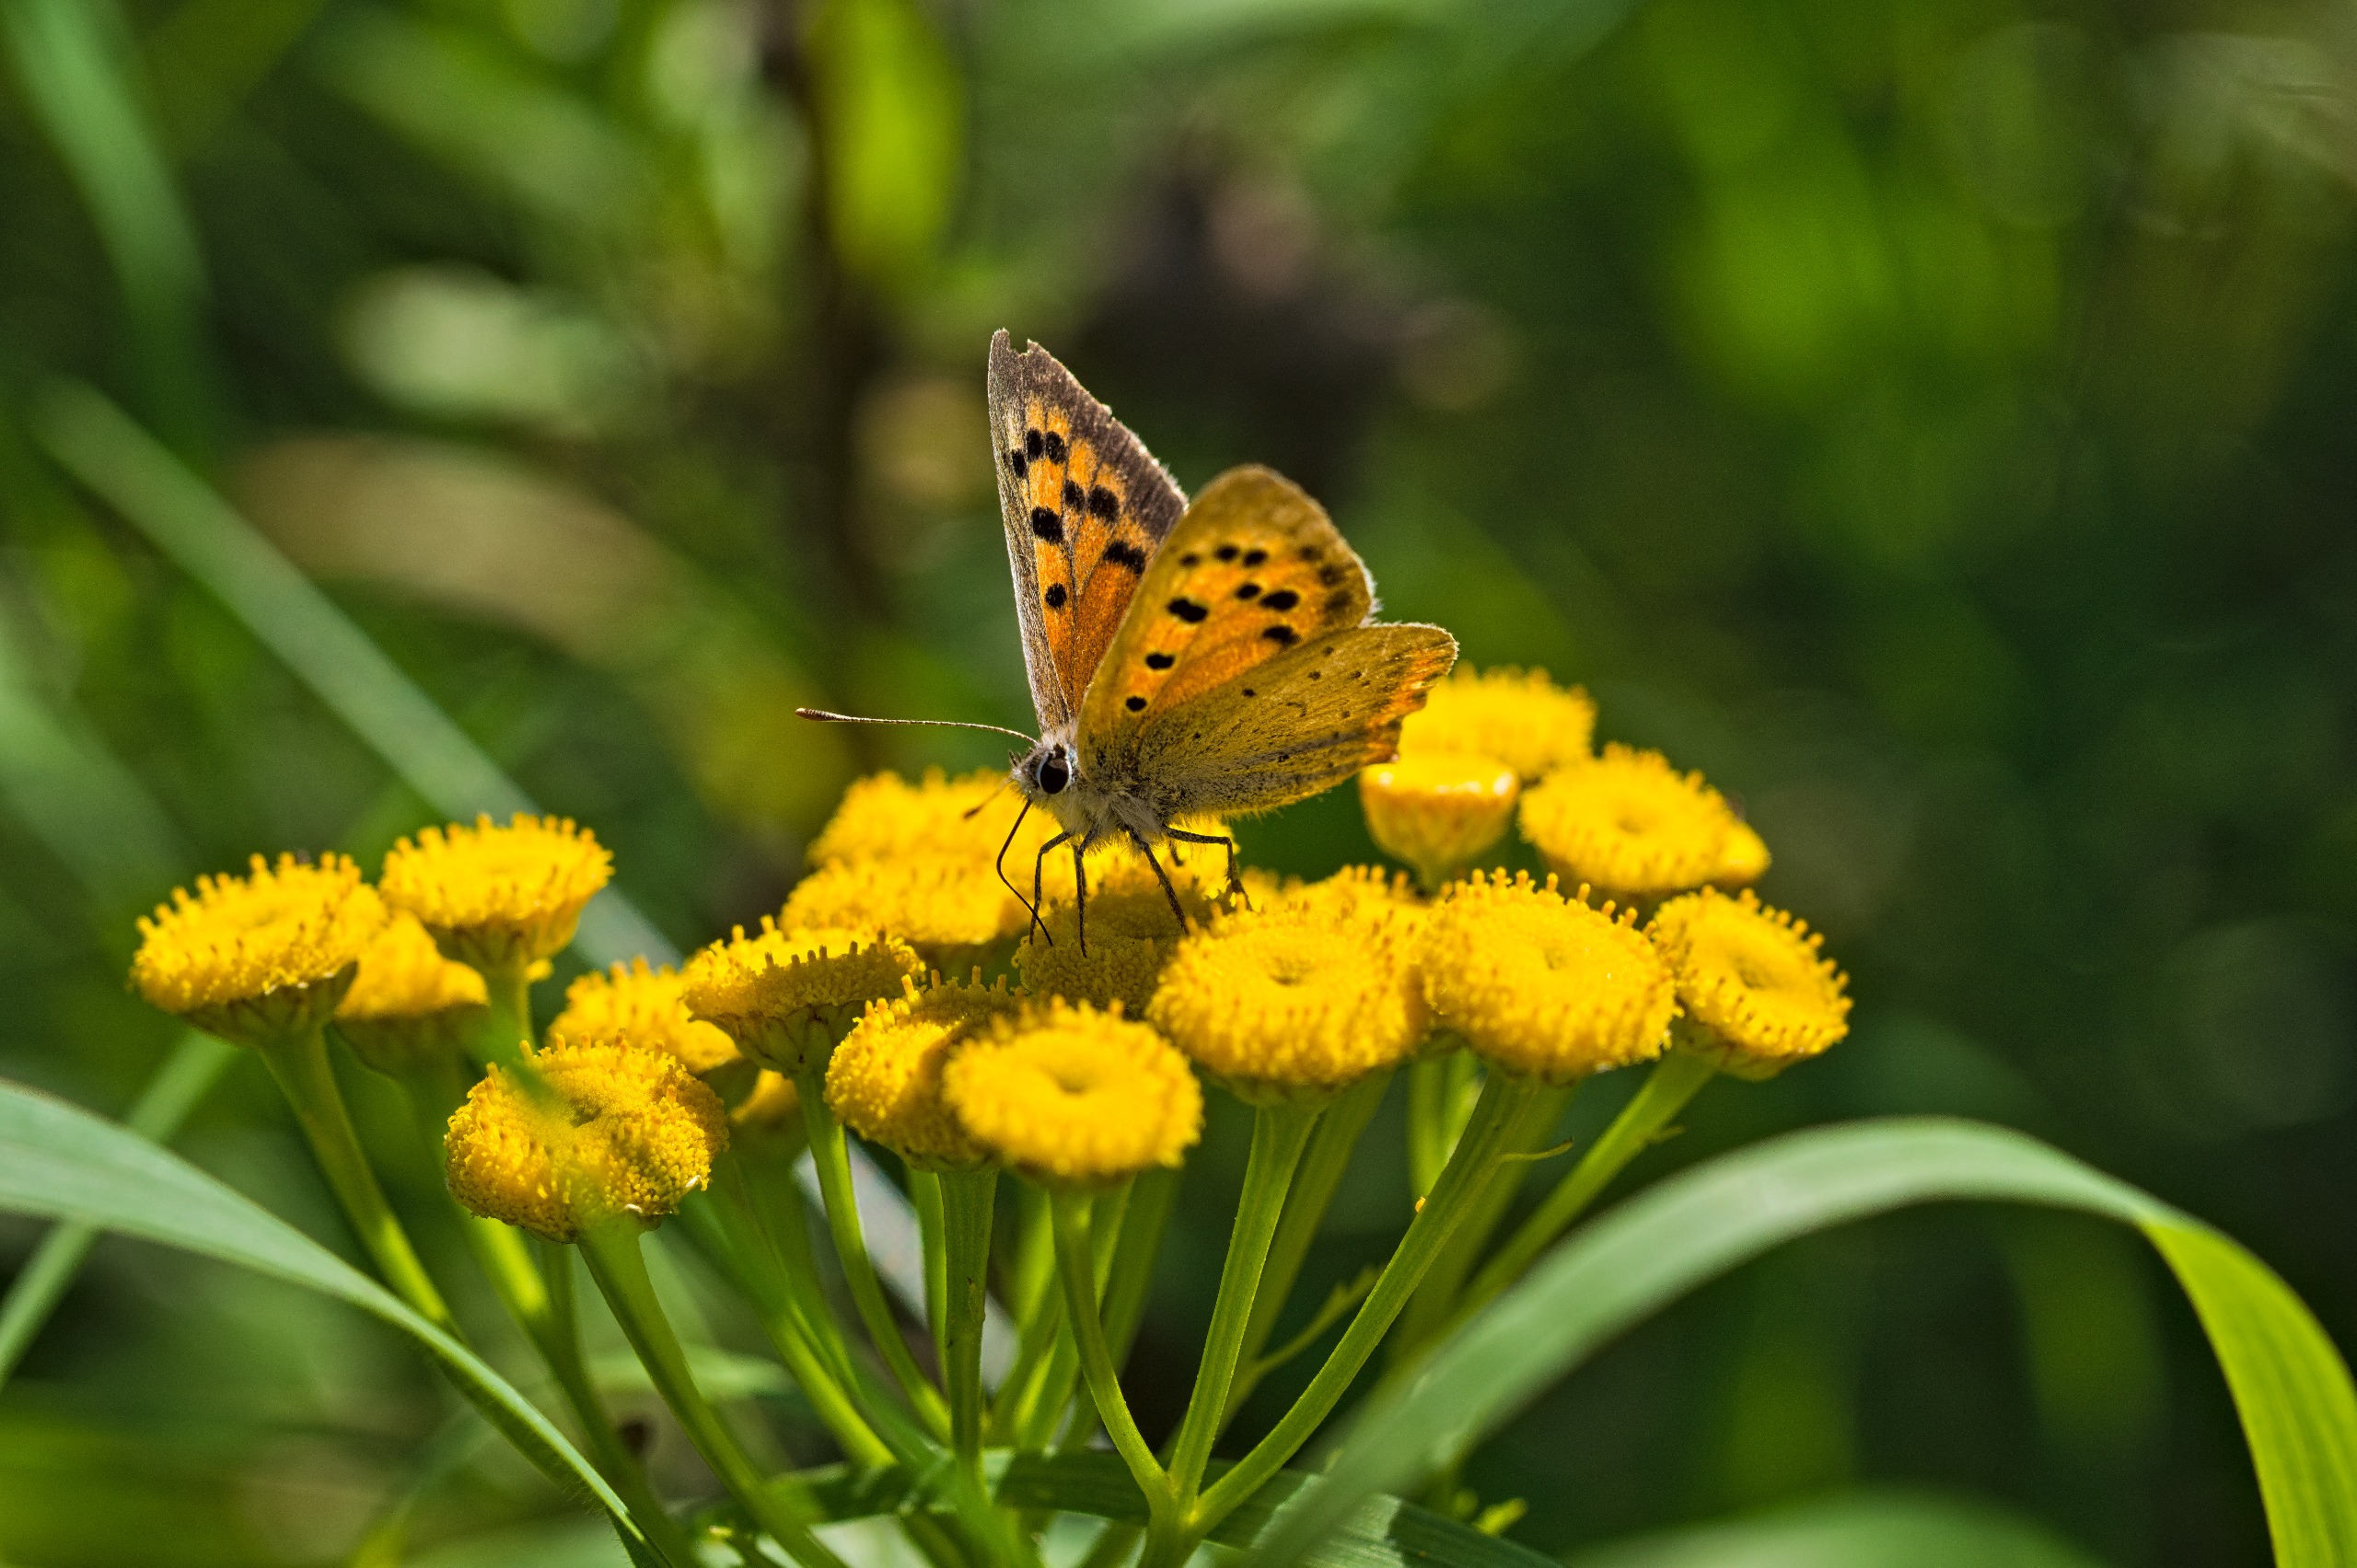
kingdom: Animalia
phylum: Arthropoda
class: Insecta
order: Lepidoptera
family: Lycaenidae
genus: Lycaena
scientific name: Lycaena phlaeas
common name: Lille ildfugl
